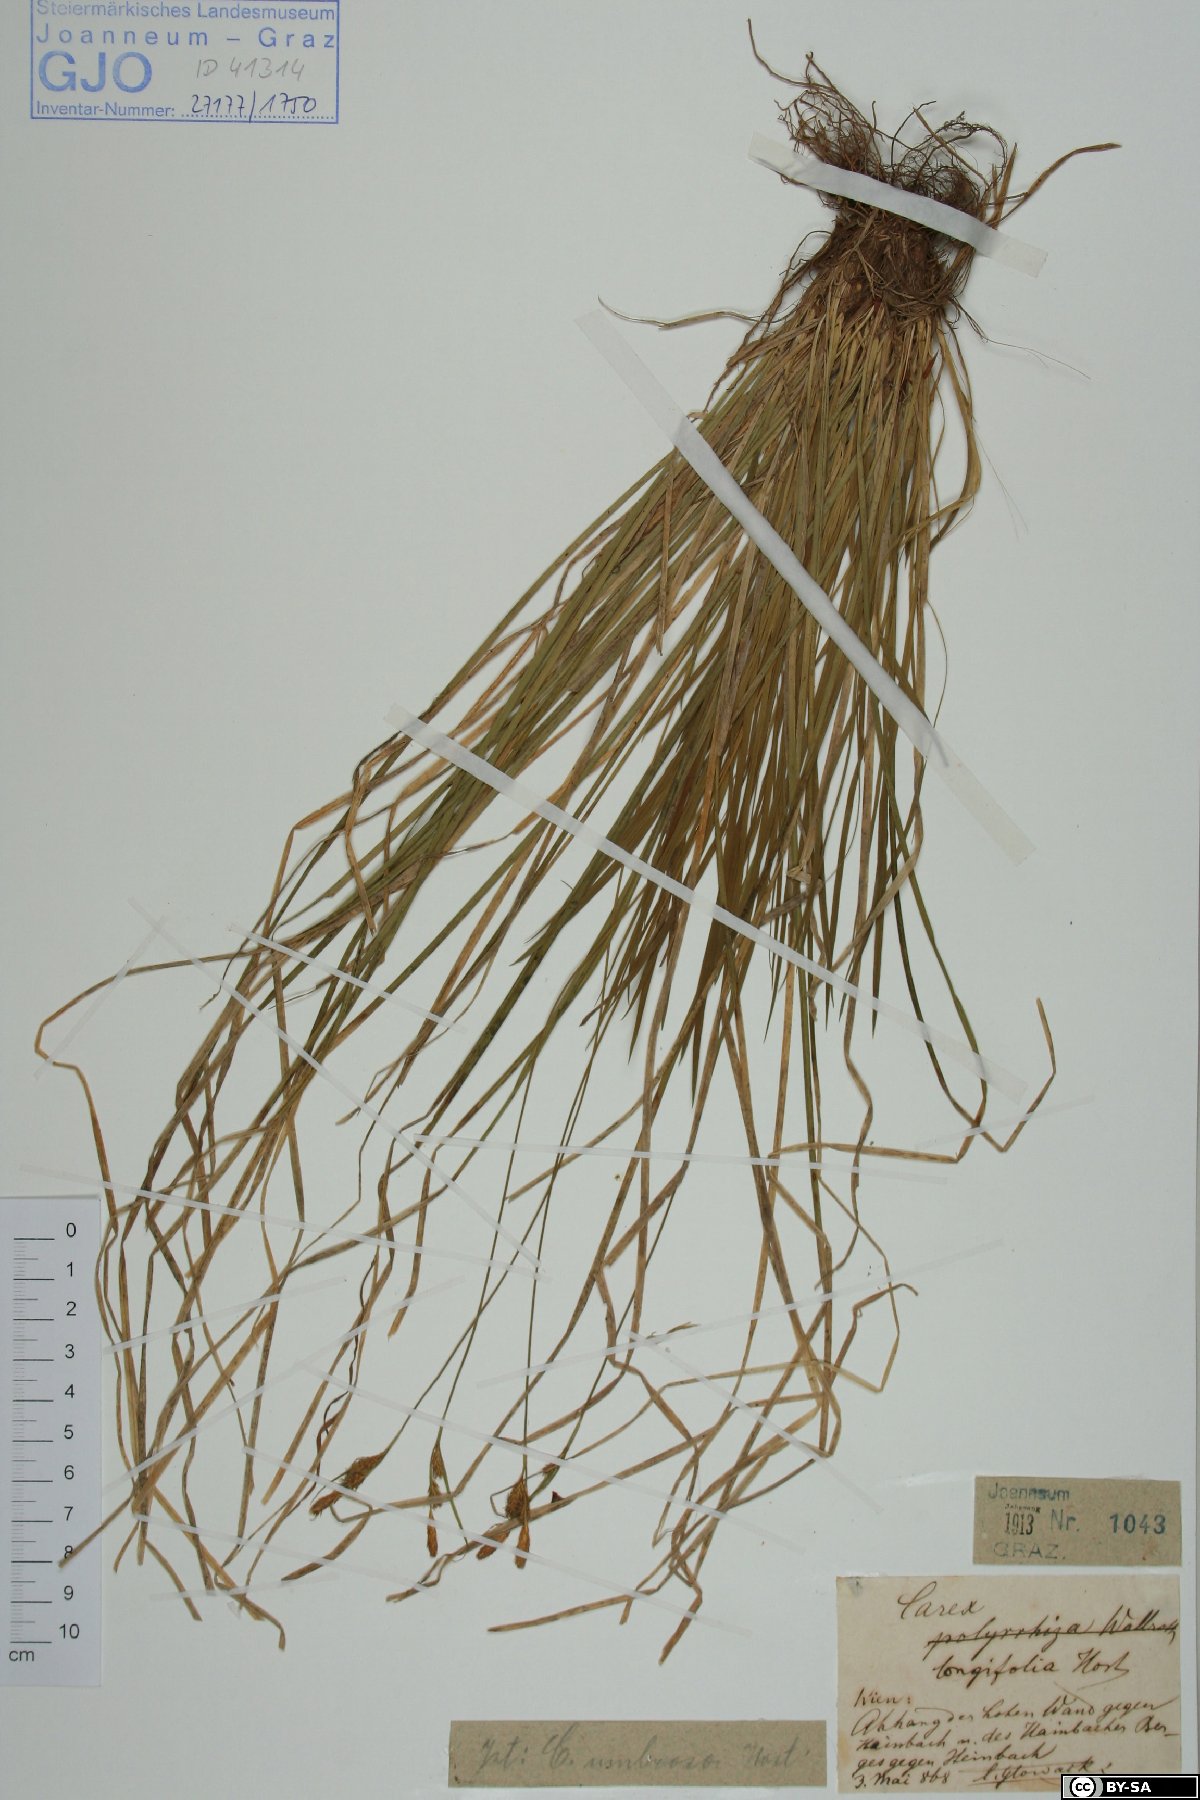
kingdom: Plantae
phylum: Tracheophyta
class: Liliopsida
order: Poales
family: Cyperaceae
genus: Carex
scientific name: Carex umbrosa
